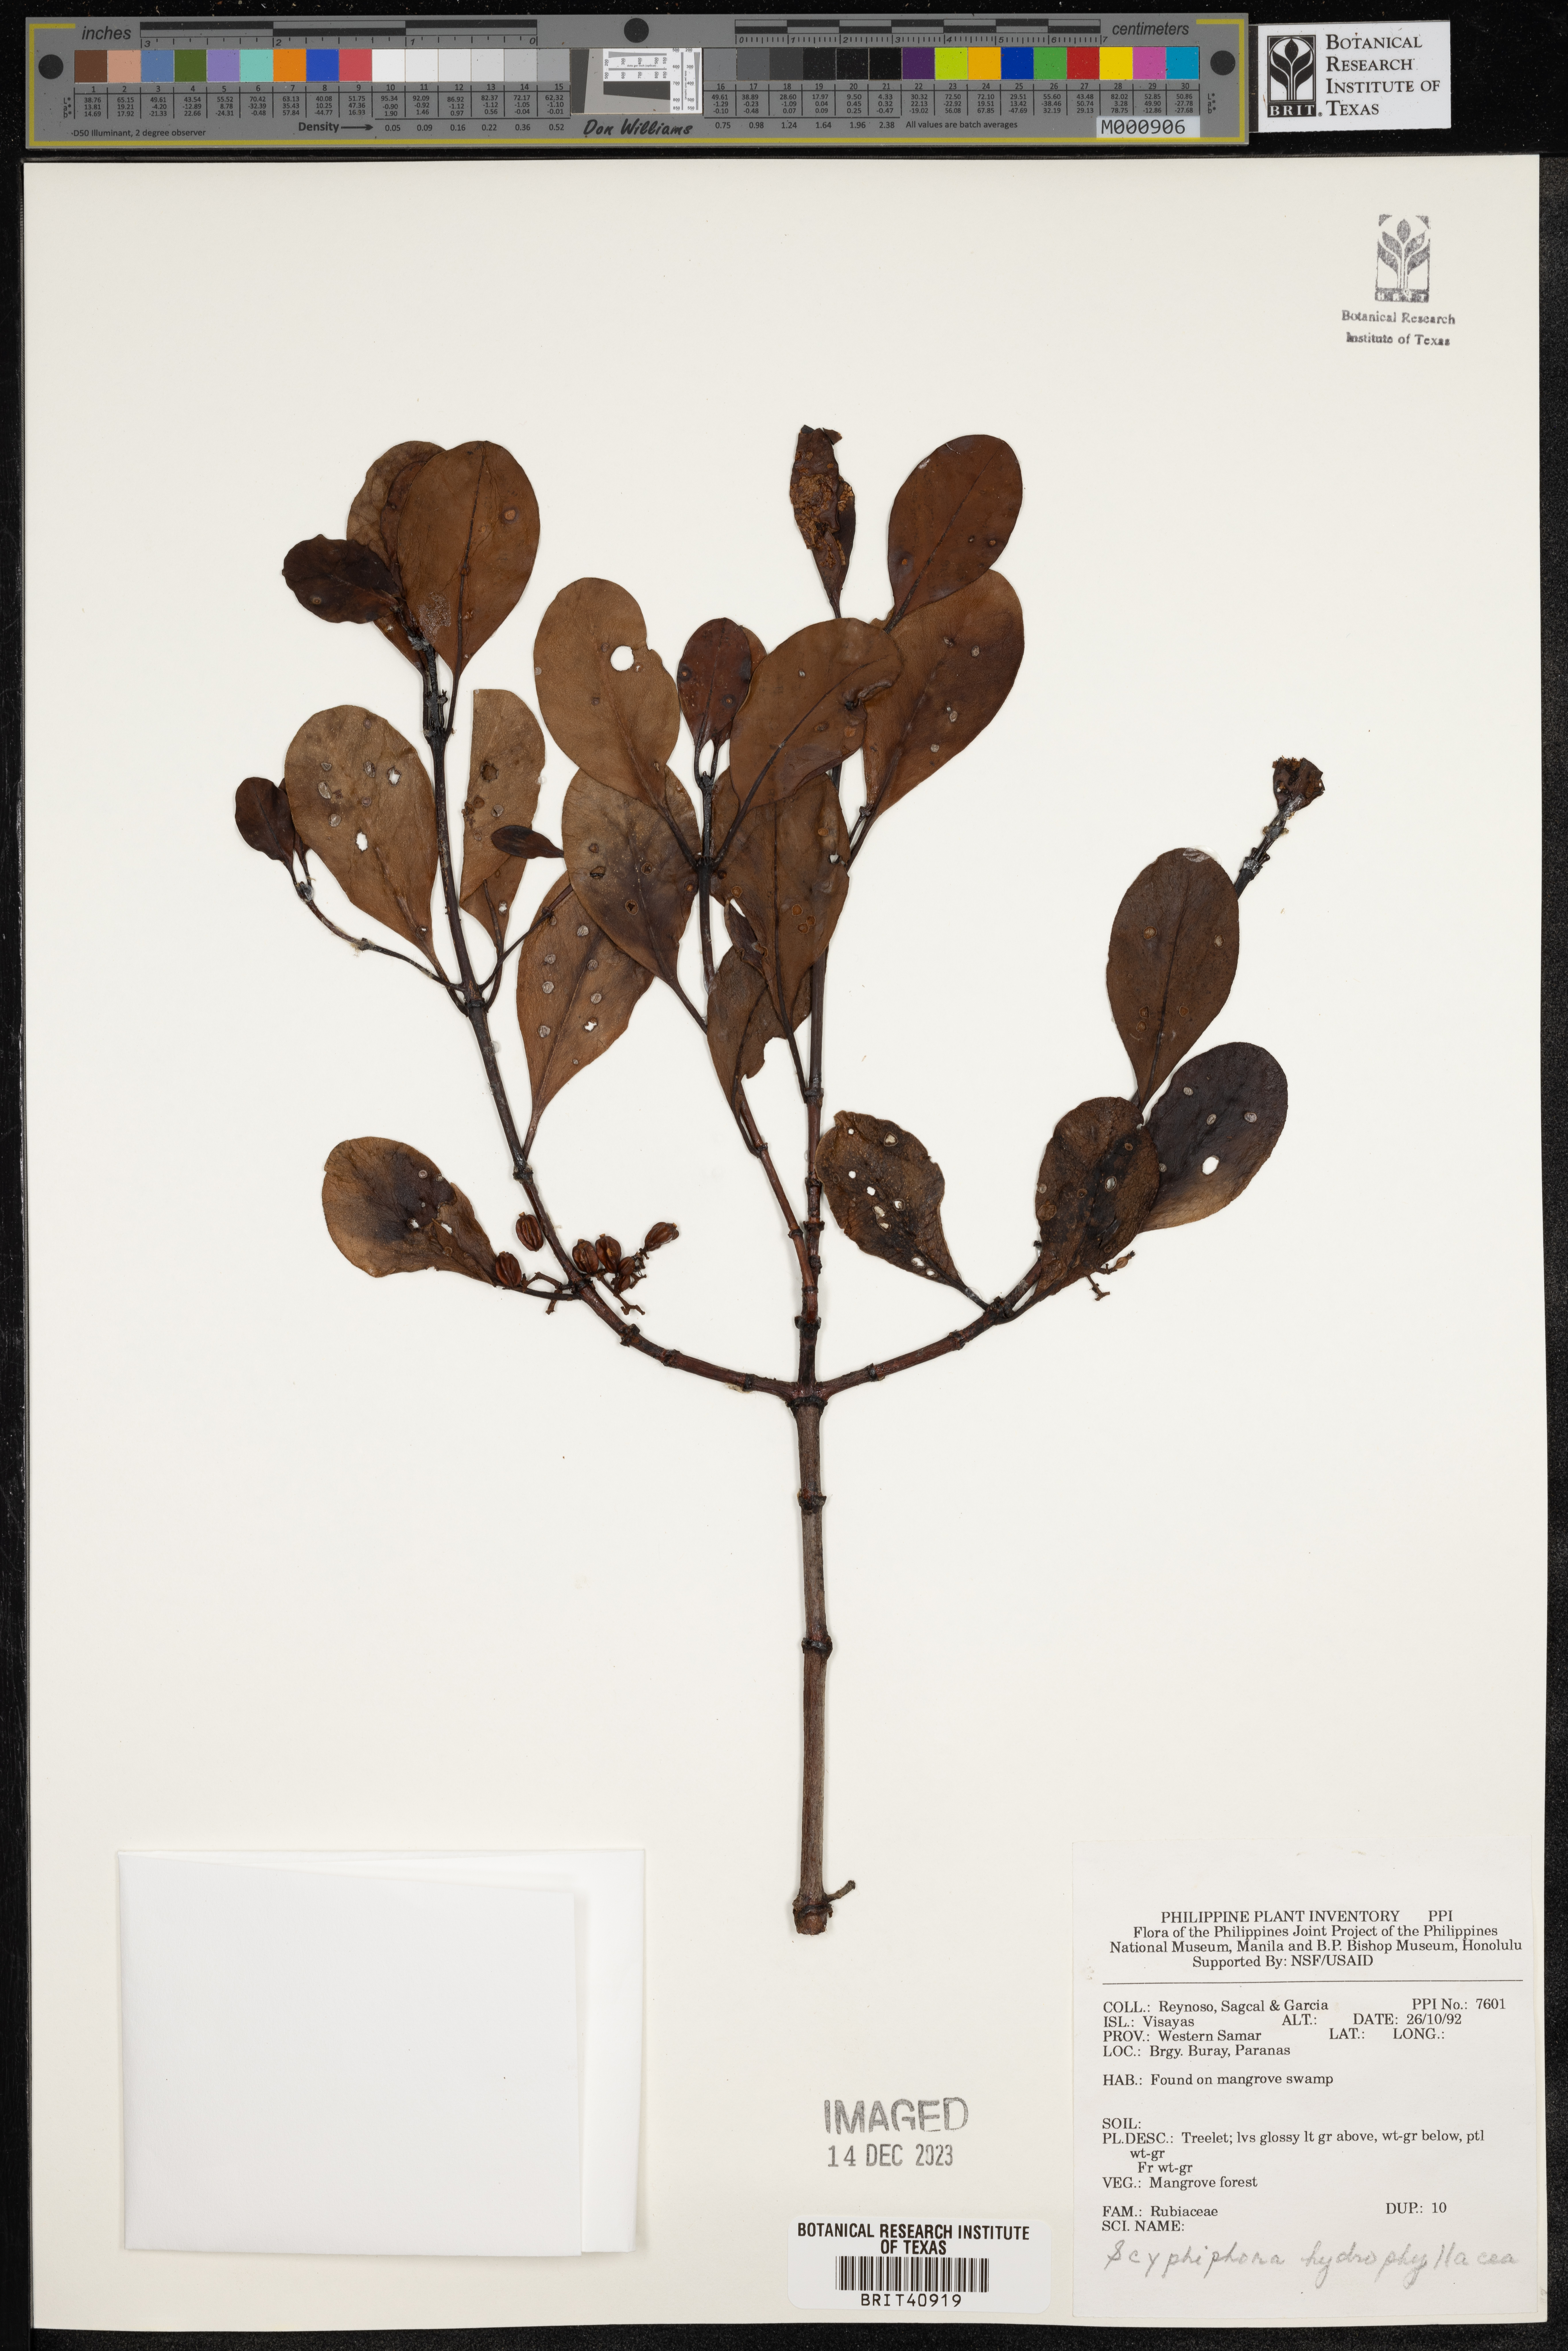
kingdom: Plantae
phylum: Tracheophyta
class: Magnoliopsida
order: Gentianales
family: Rubiaceae
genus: Scyphiphora
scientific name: Scyphiphora hydrophylacea
